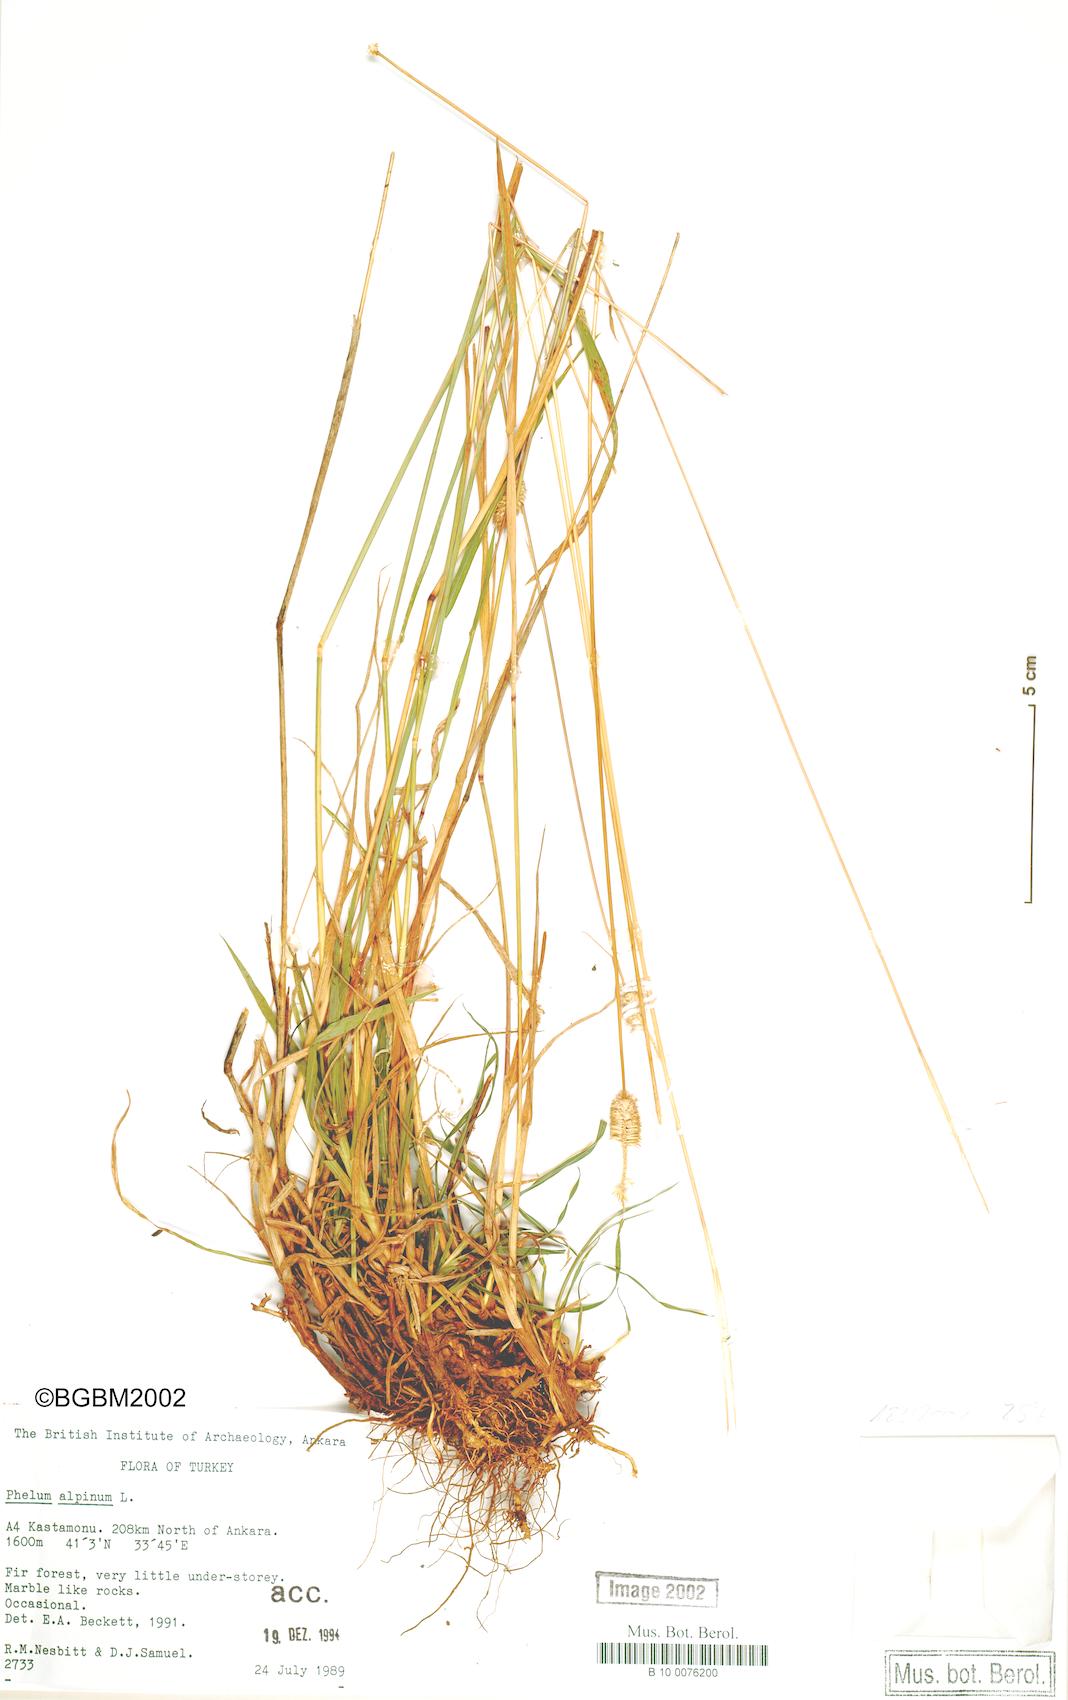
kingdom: Plantae
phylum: Tracheophyta
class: Liliopsida
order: Poales
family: Poaceae
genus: Phleum
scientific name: Phleum alpinum
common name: Alpine cat's-tail
